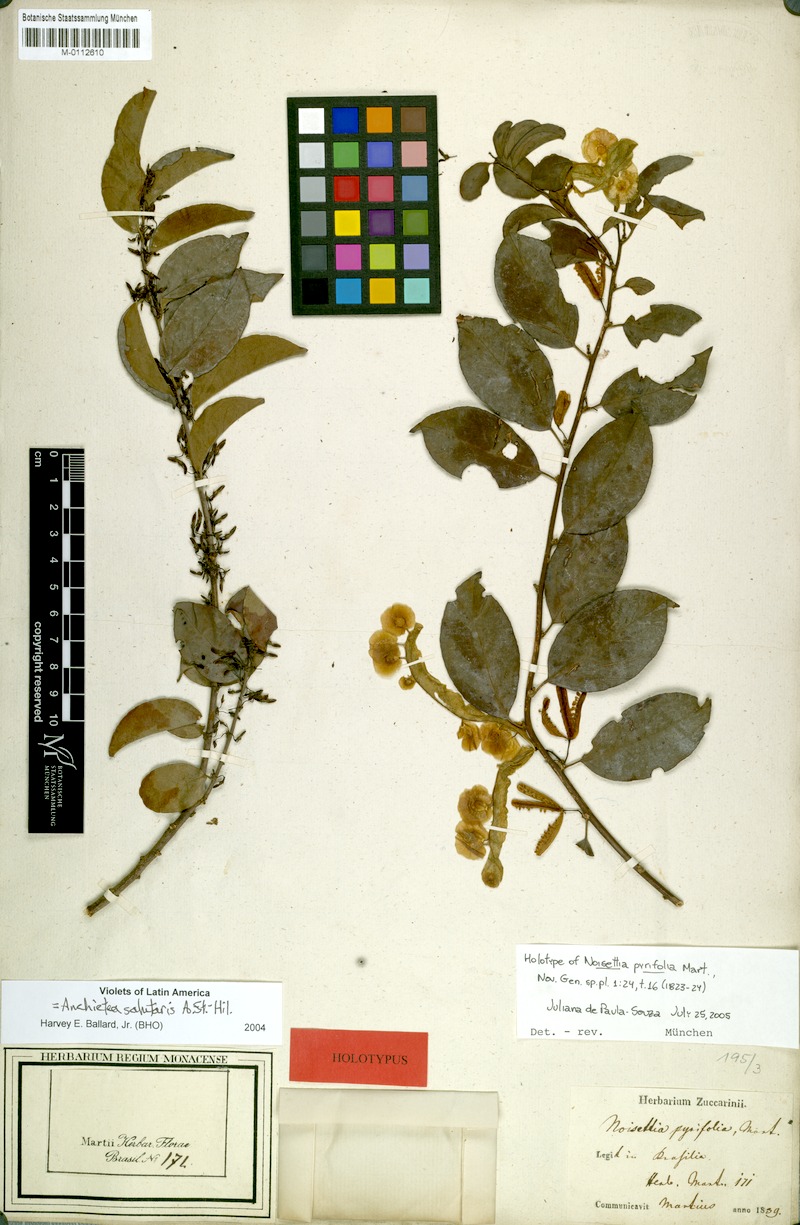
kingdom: Plantae
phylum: Tracheophyta
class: Magnoliopsida
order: Malpighiales
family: Violaceae
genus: Anchietea
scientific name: Anchietea pyrifolia
